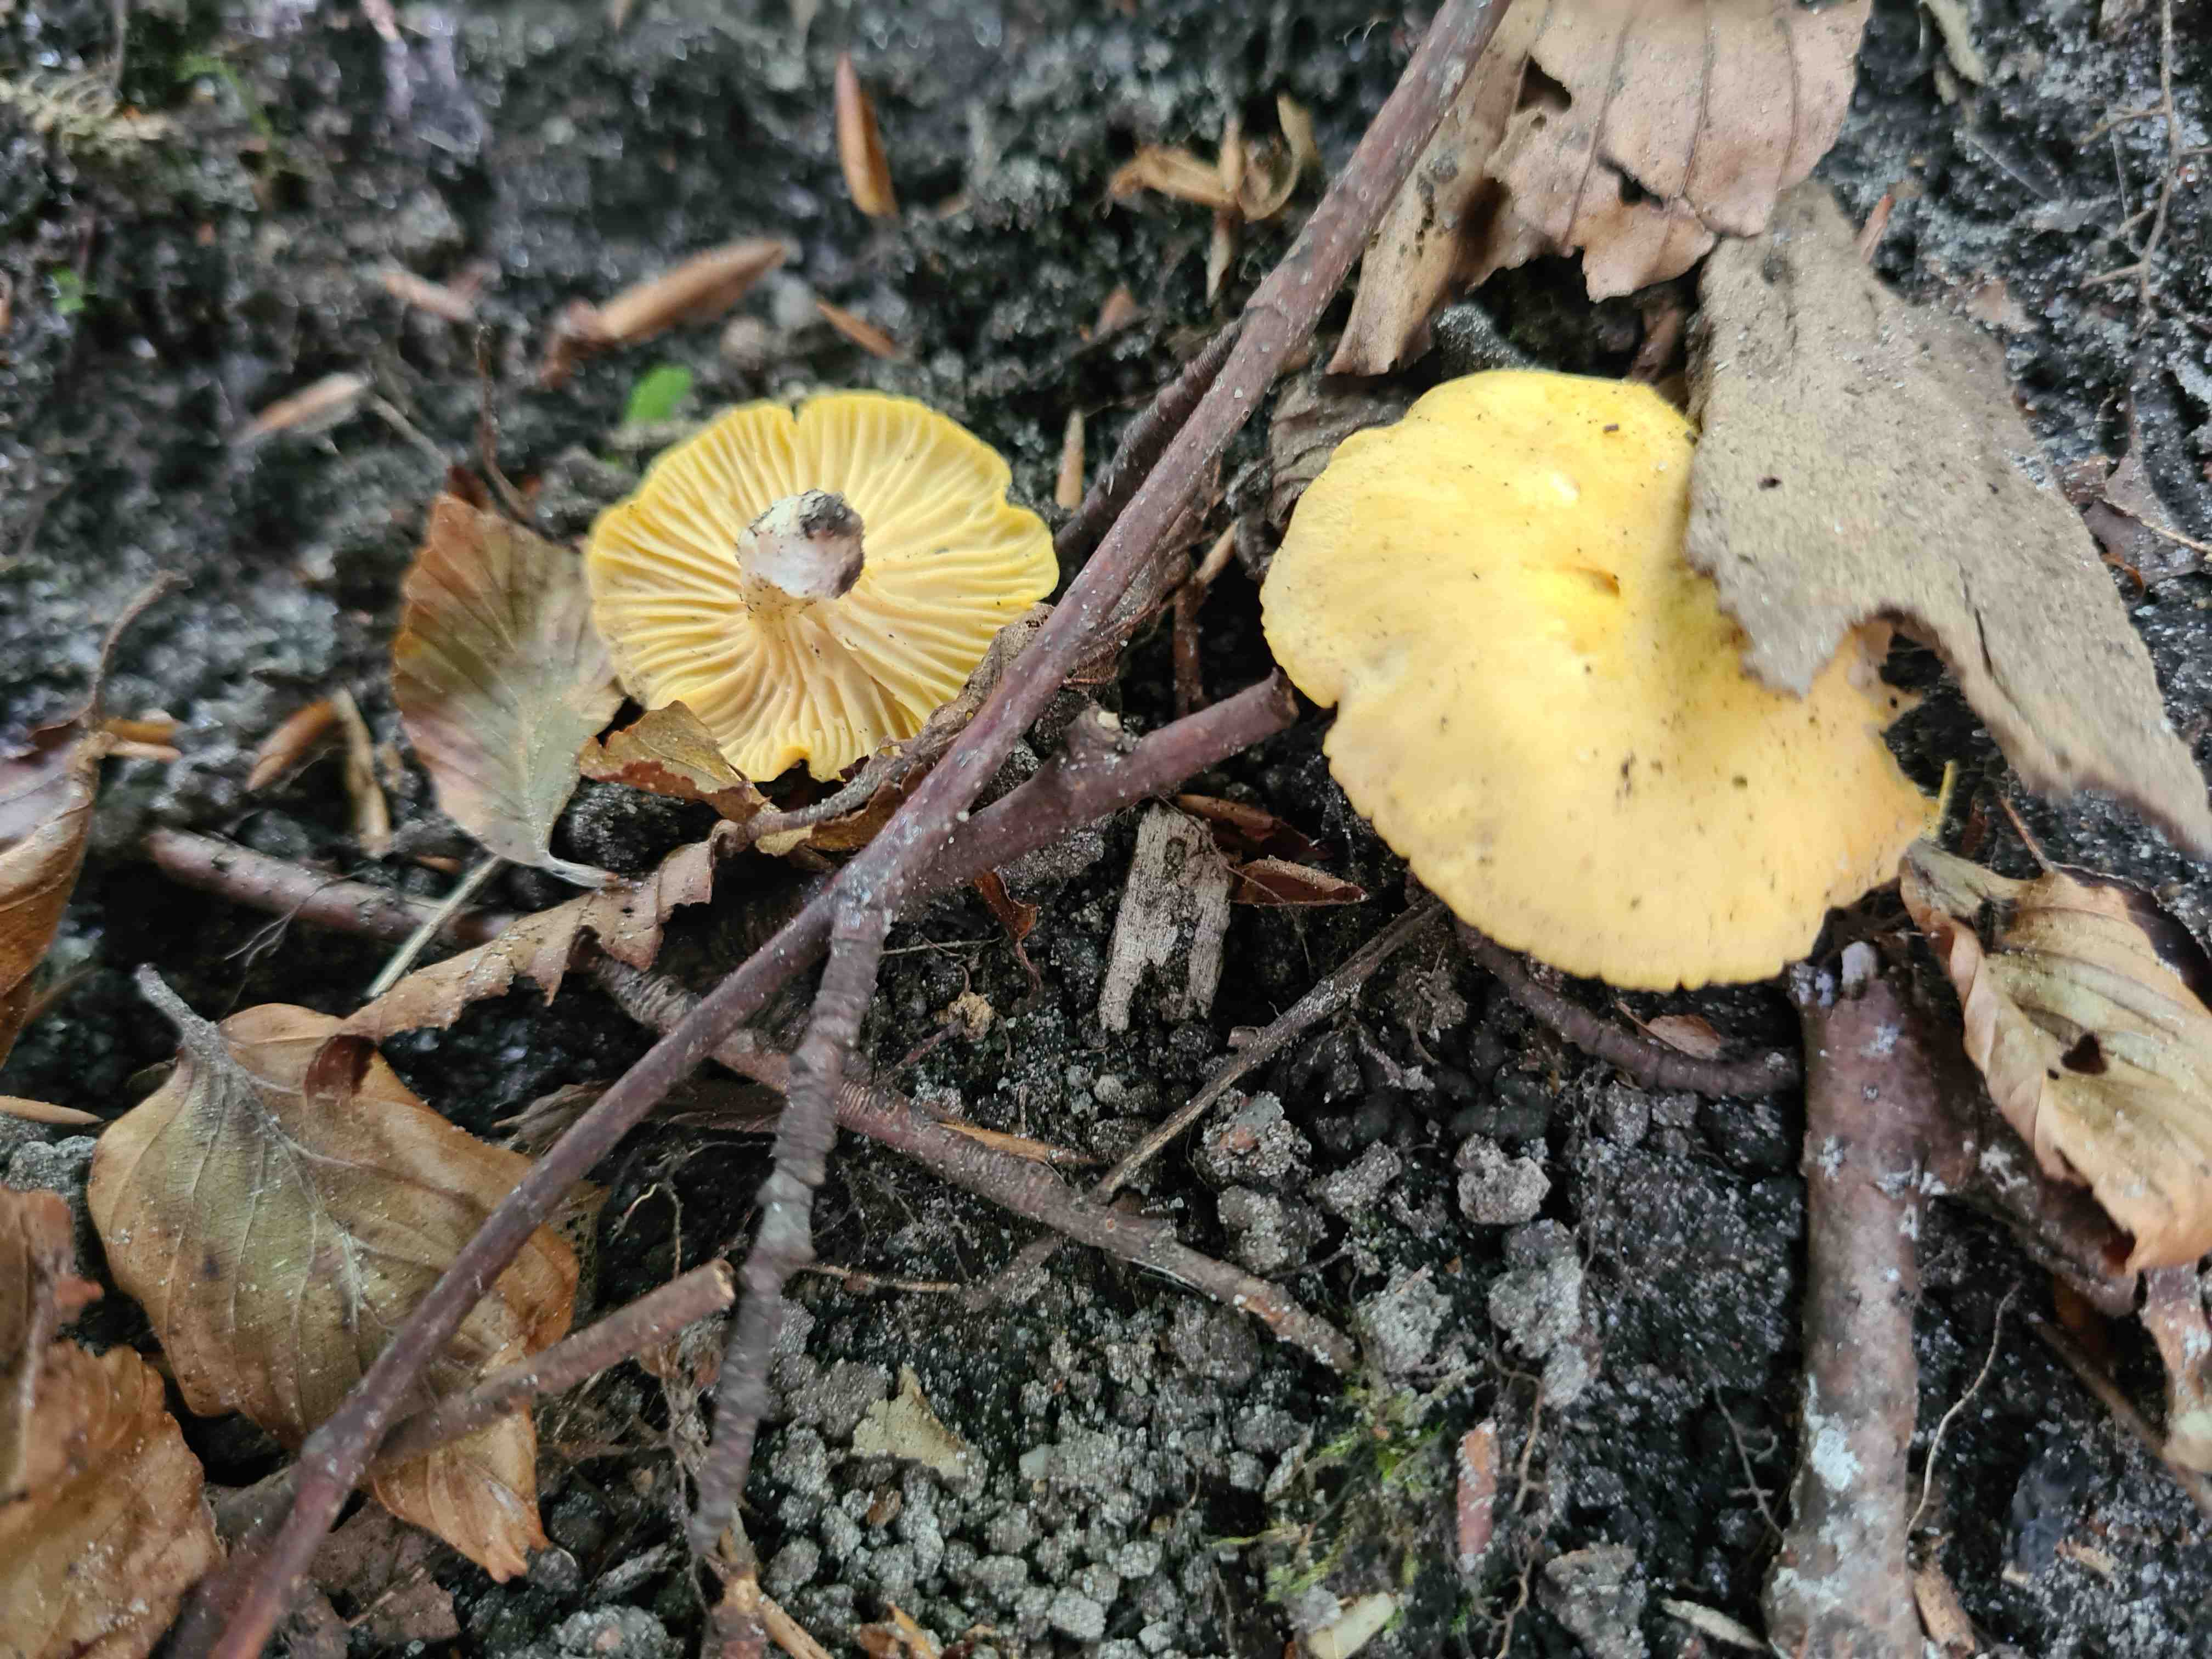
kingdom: Fungi
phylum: Basidiomycota
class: Agaricomycetes
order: Cantharellales
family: Hydnaceae
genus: Cantharellus
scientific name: Cantharellus cibarius
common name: almindelig kantarel
